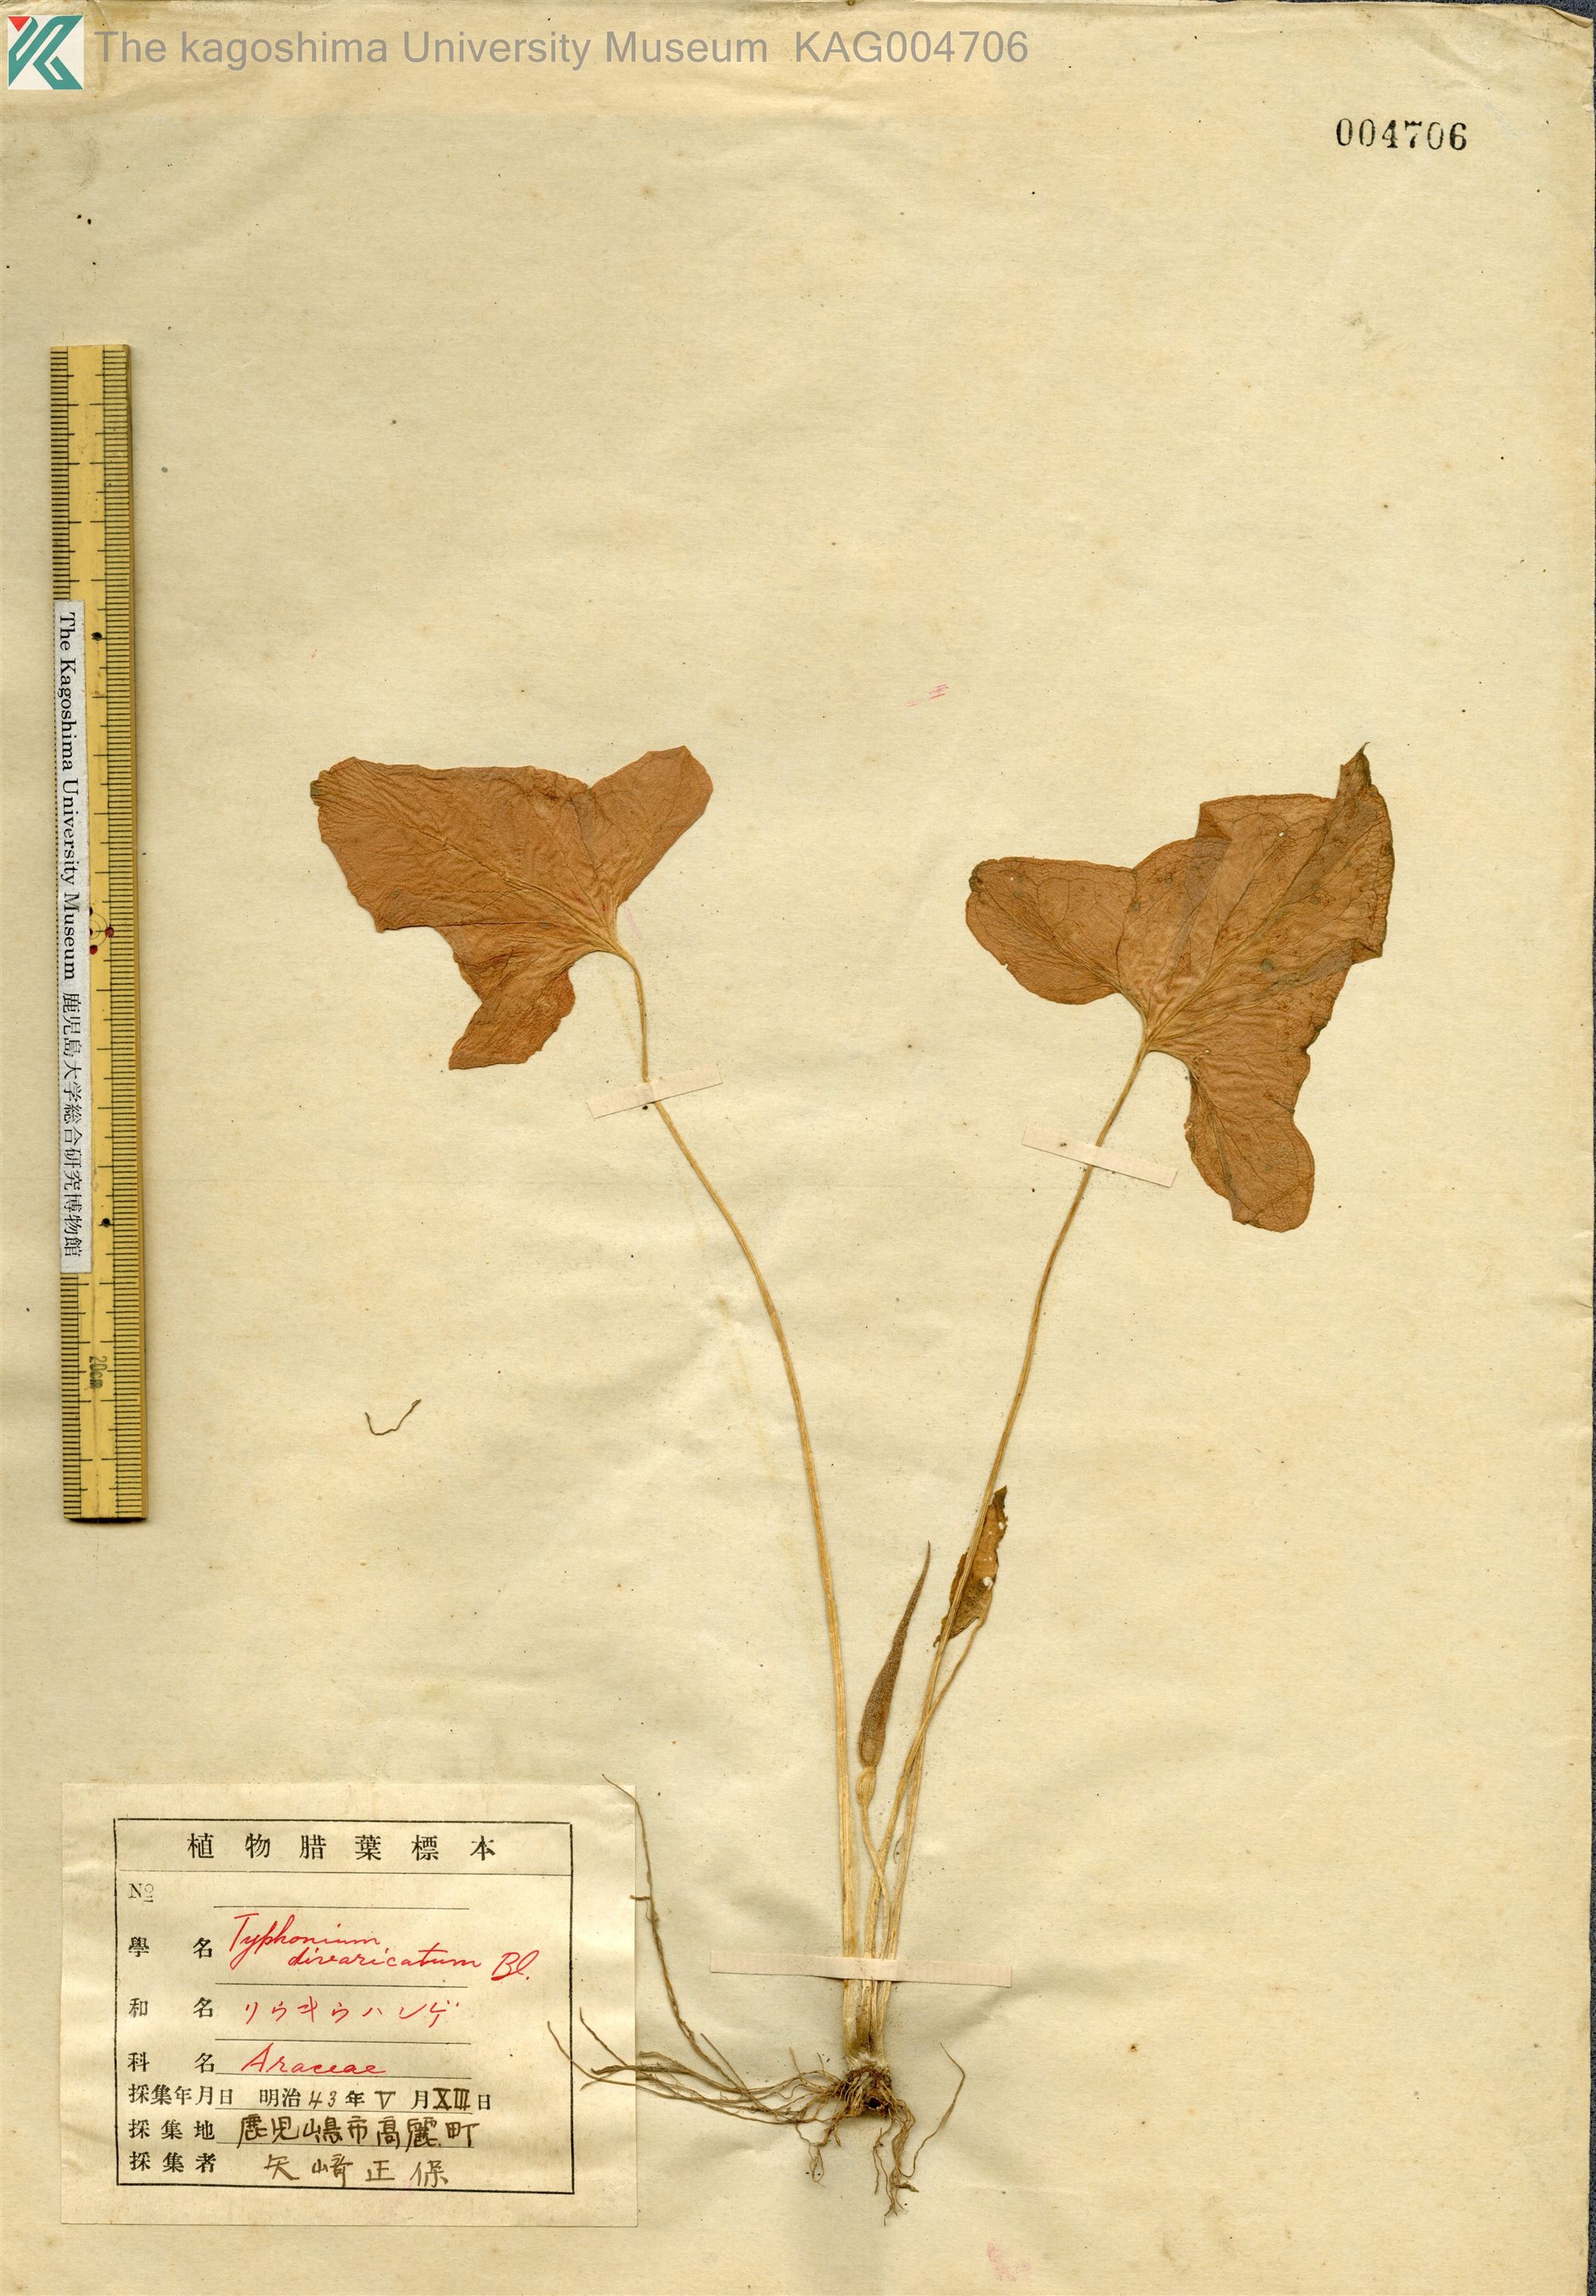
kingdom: Plantae
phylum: Tracheophyta
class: Liliopsida
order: Alismatales
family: Araceae
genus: Typhonium
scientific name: Typhonium
